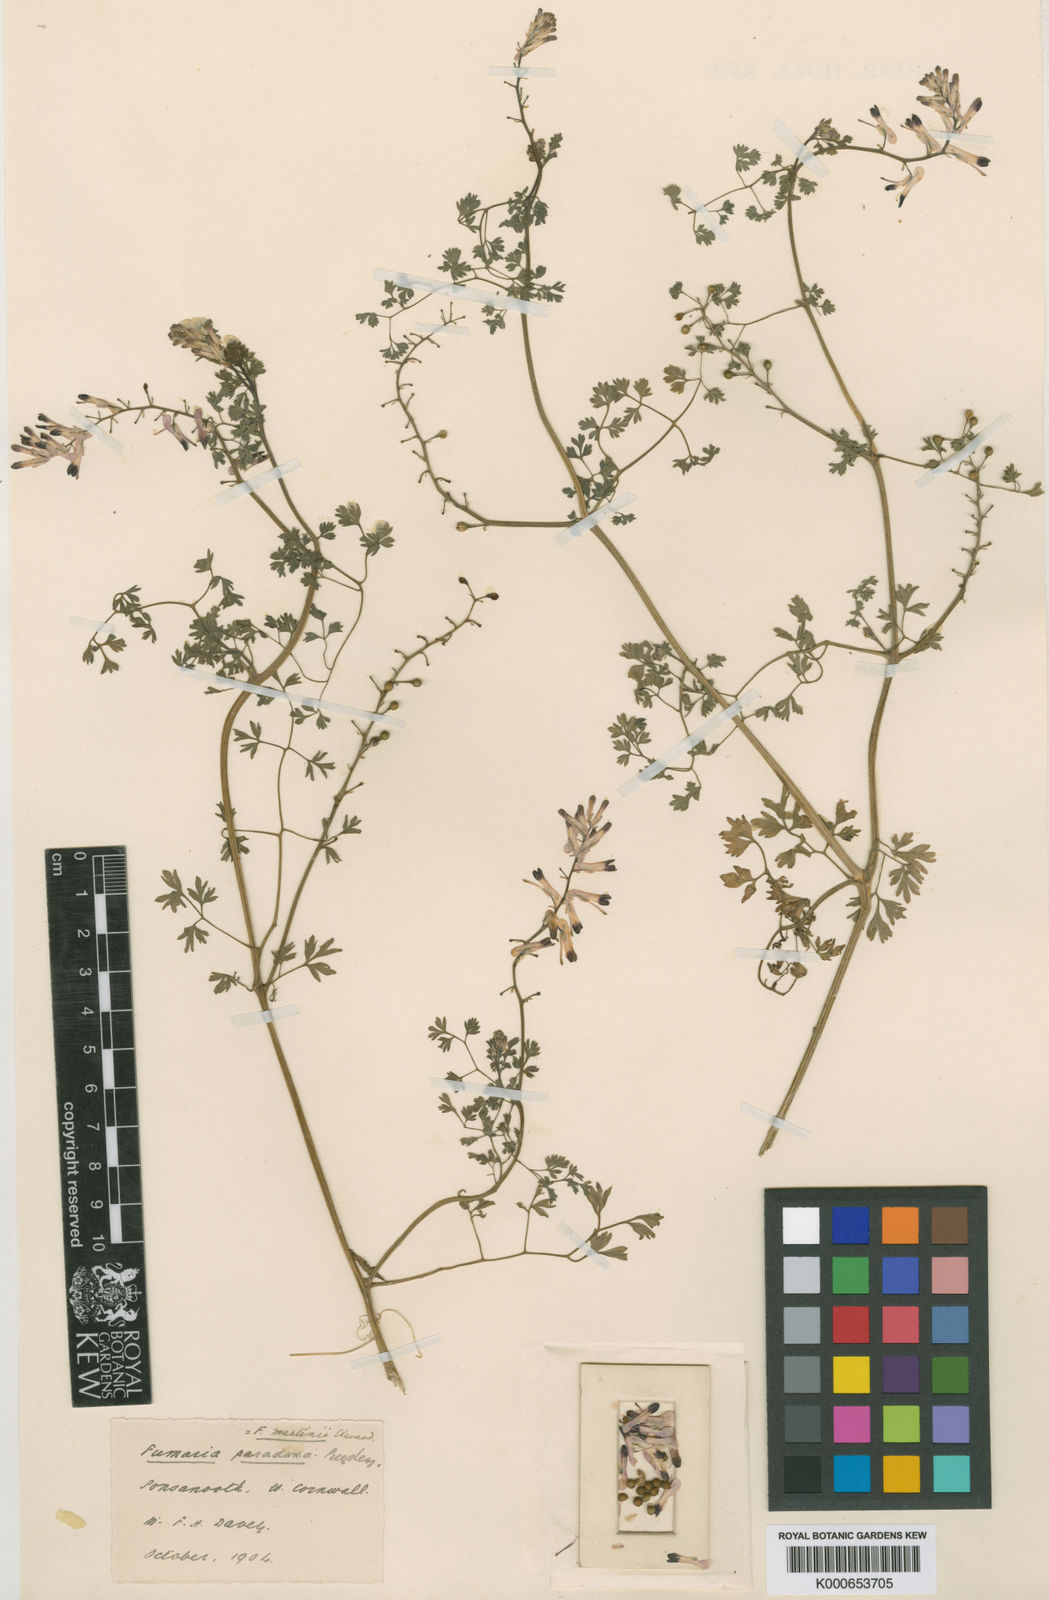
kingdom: Plantae
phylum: Tracheophyta
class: Magnoliopsida
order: Ranunculales
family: Papaveraceae
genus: Fumaria
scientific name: Fumaria
